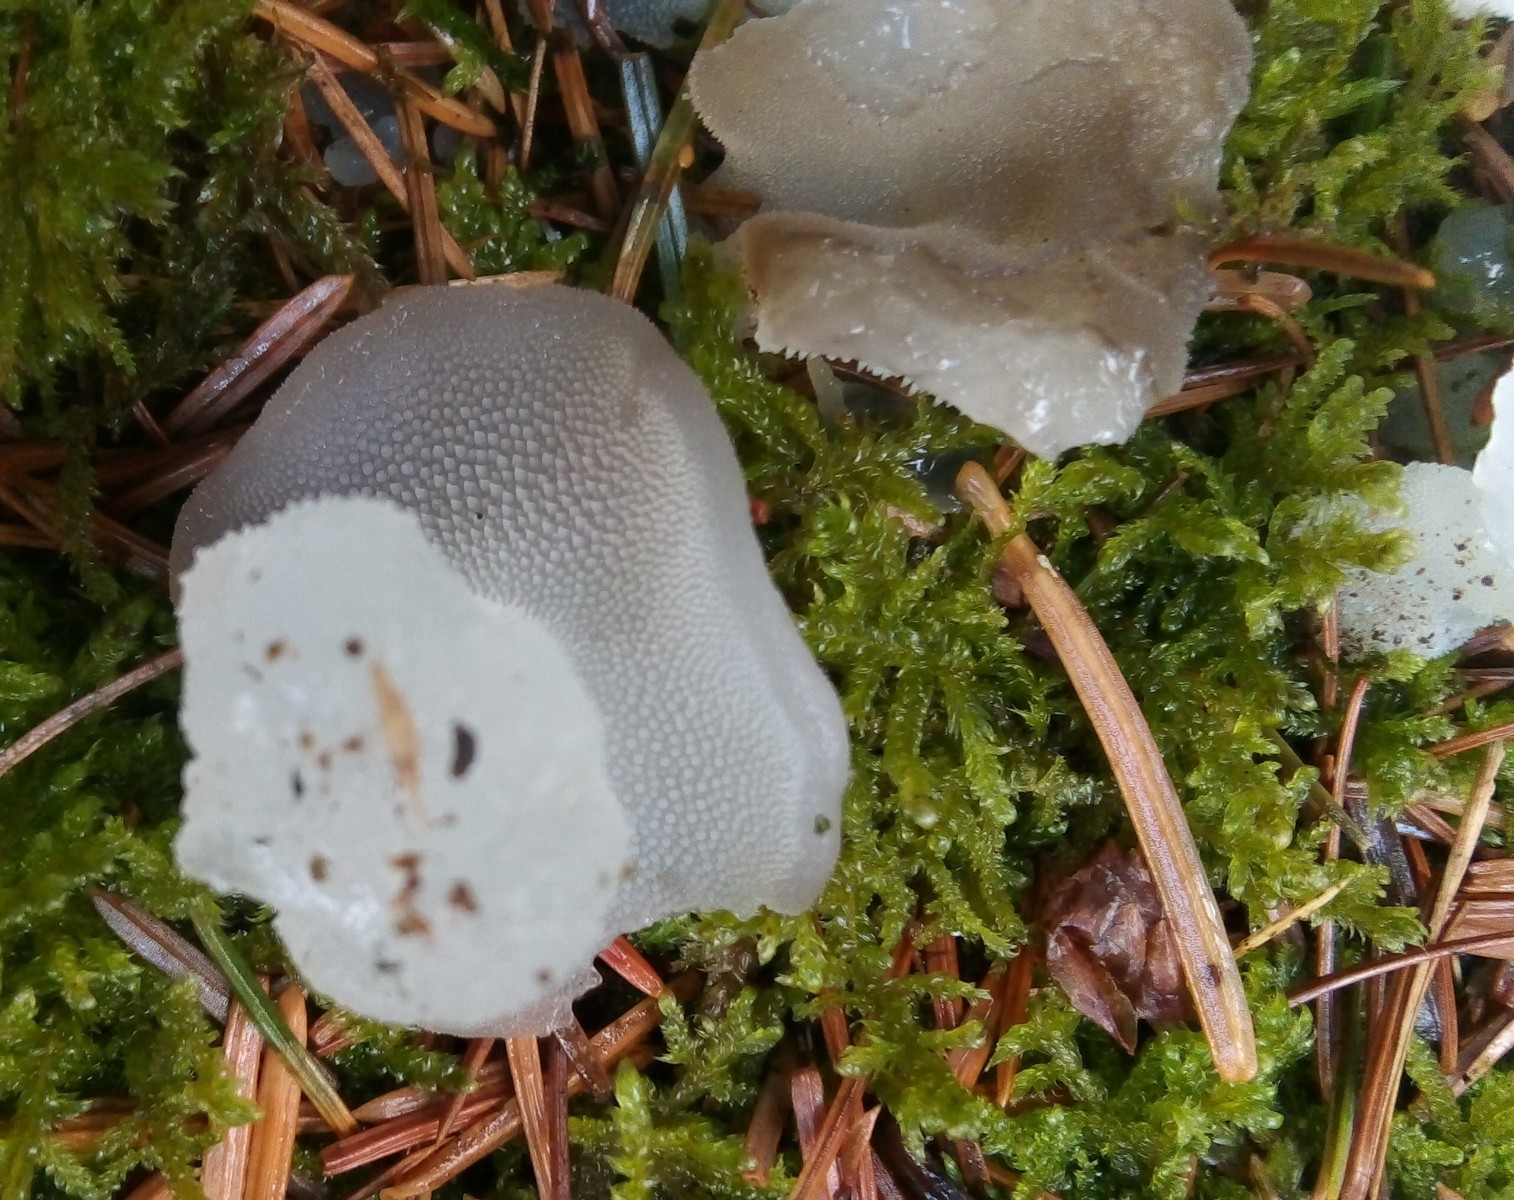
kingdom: Fungi
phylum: Basidiomycota
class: Agaricomycetes
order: Auriculariales
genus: Pseudohydnum
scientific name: Pseudohydnum gelatinosum
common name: bævretand
